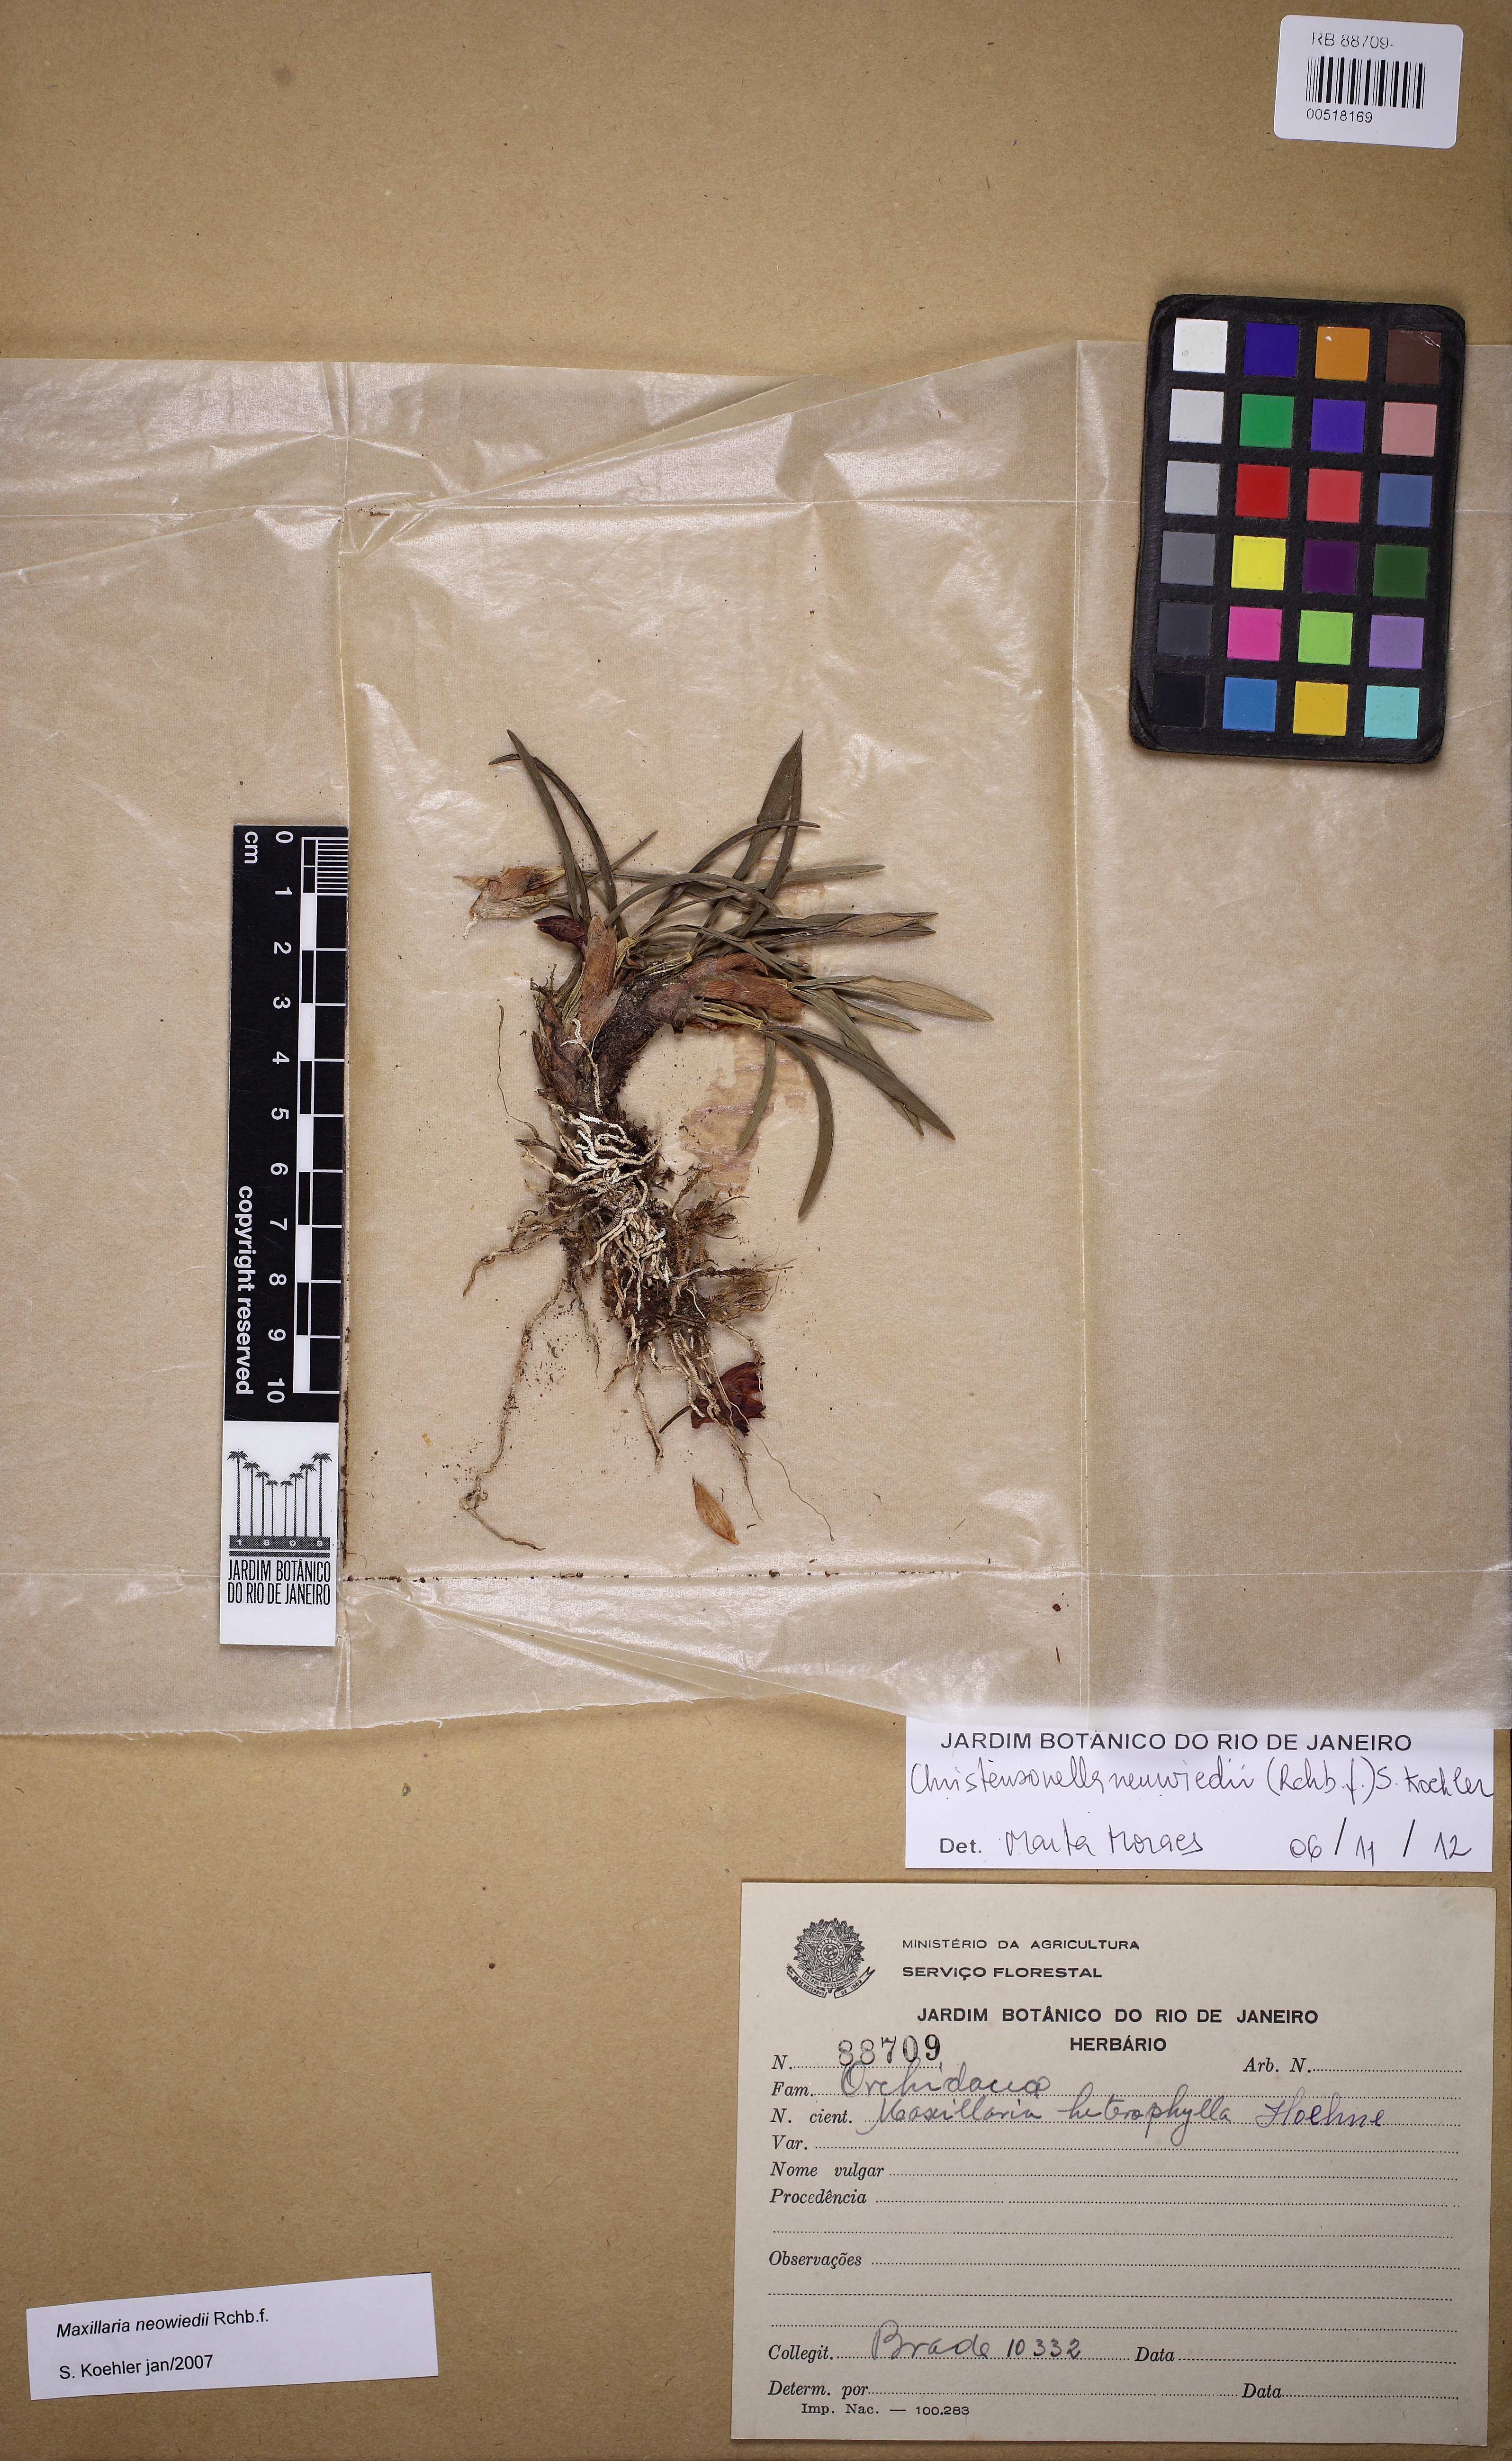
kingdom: Plantae
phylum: Tracheophyta
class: Liliopsida
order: Asparagales
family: Orchidaceae
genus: Maxillaria
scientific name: Maxillaria neowiedii
